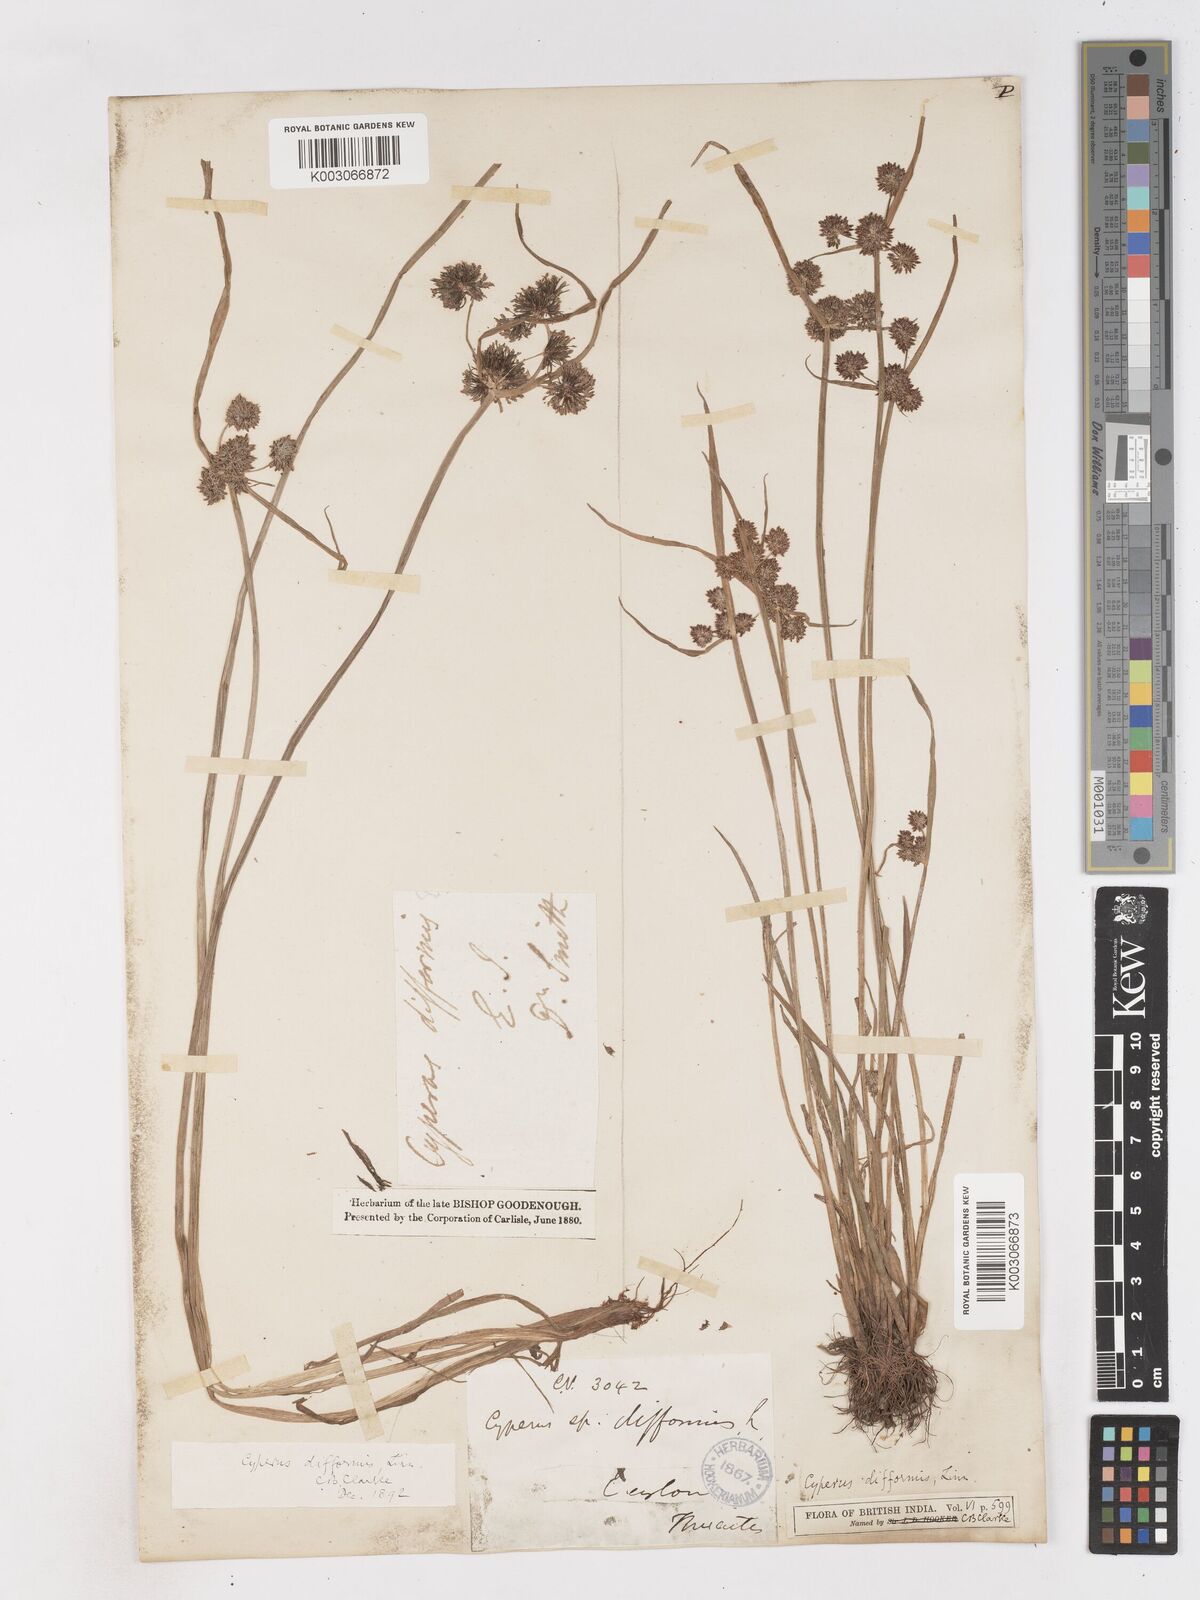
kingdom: Plantae
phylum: Tracheophyta
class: Liliopsida
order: Poales
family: Cyperaceae
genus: Cyperus
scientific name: Cyperus difformis
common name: Variable flatsedge
